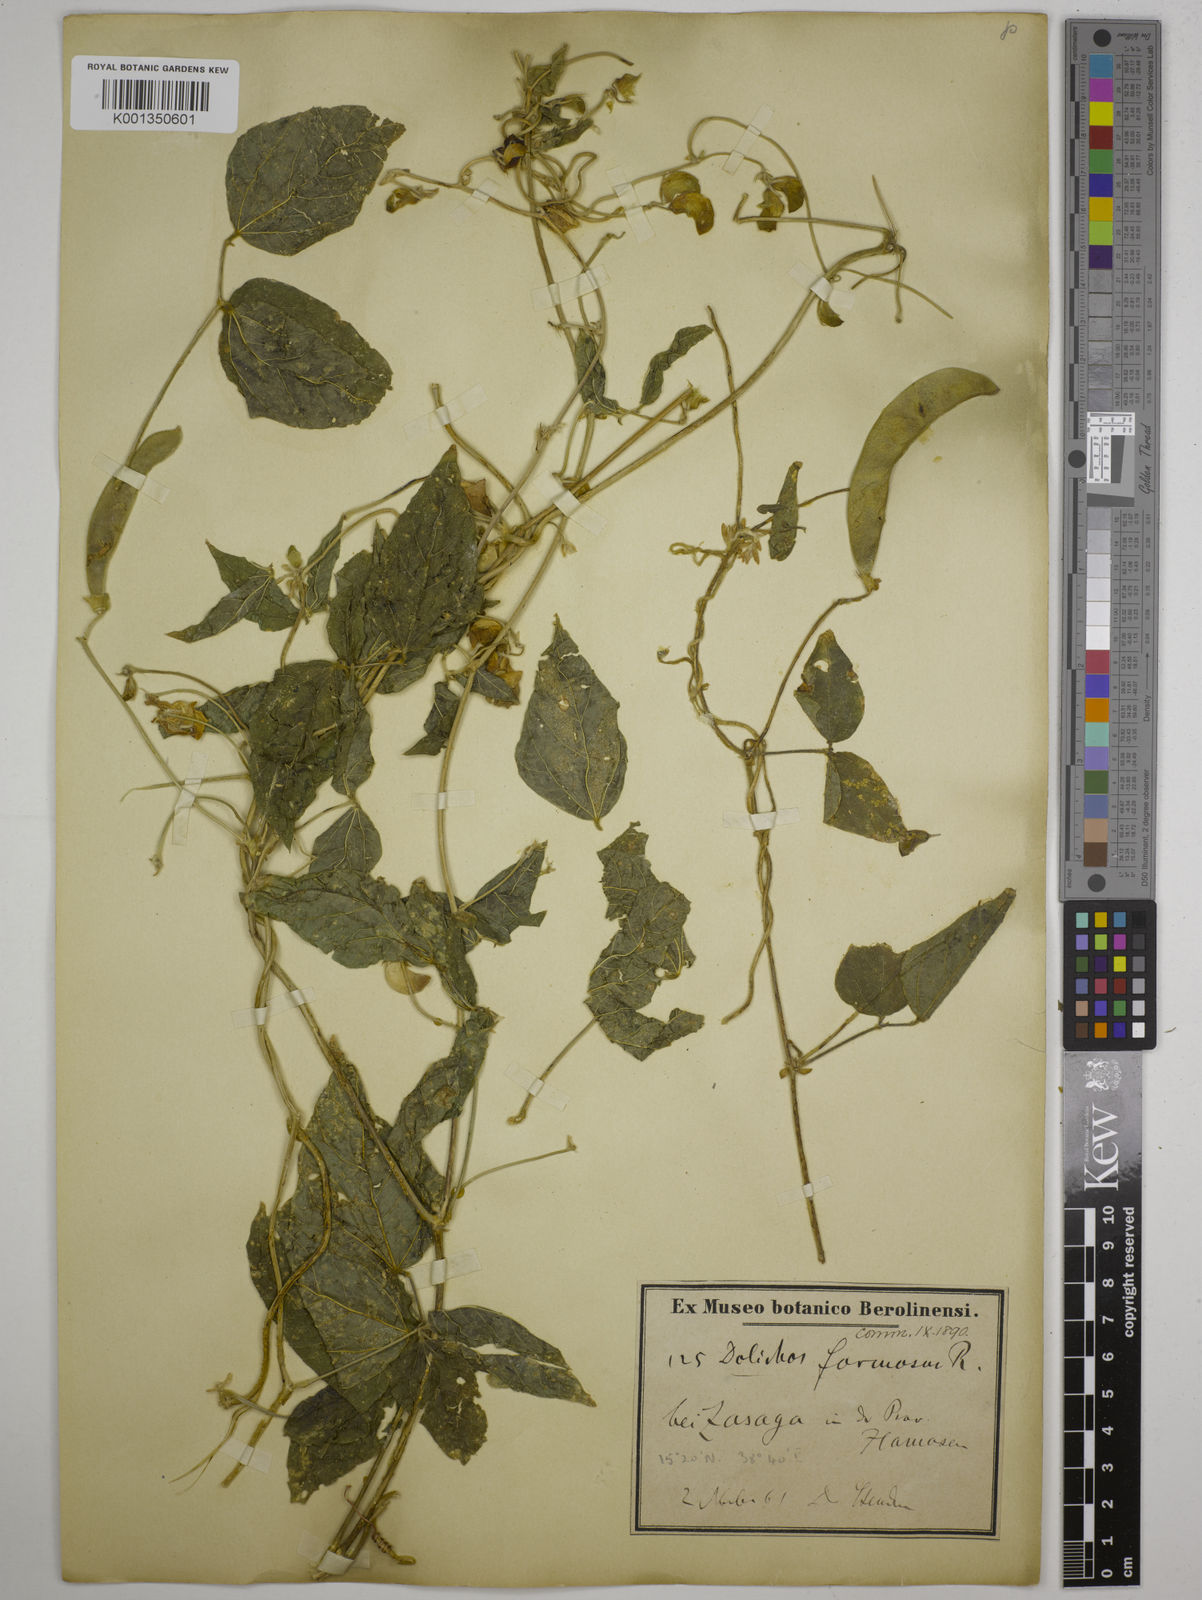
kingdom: Plantae
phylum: Tracheophyta
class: Magnoliopsida
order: Fabales
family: Fabaceae
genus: Dolichos
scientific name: Dolichos
